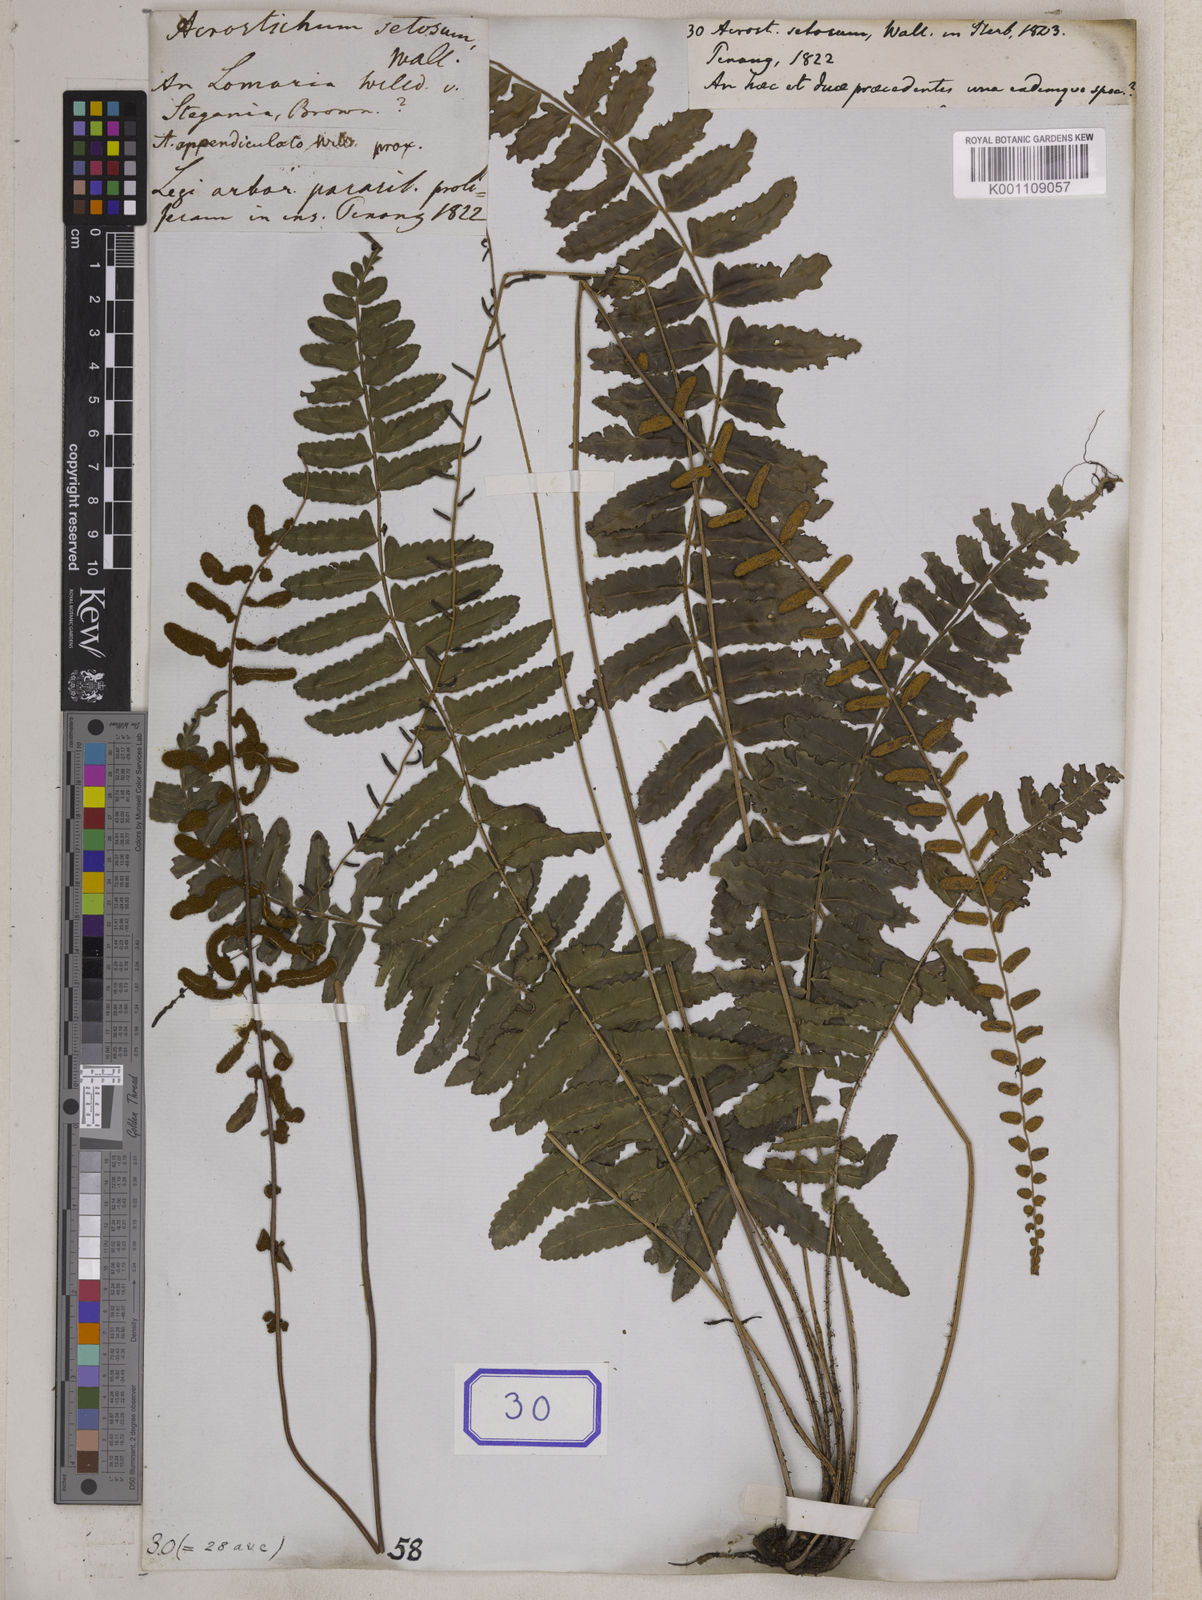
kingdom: Plantae
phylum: Tracheophyta
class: Polypodiopsida
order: Polypodiales
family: Dryopteridaceae
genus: Bolbitis
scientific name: Bolbitis appendiculata
